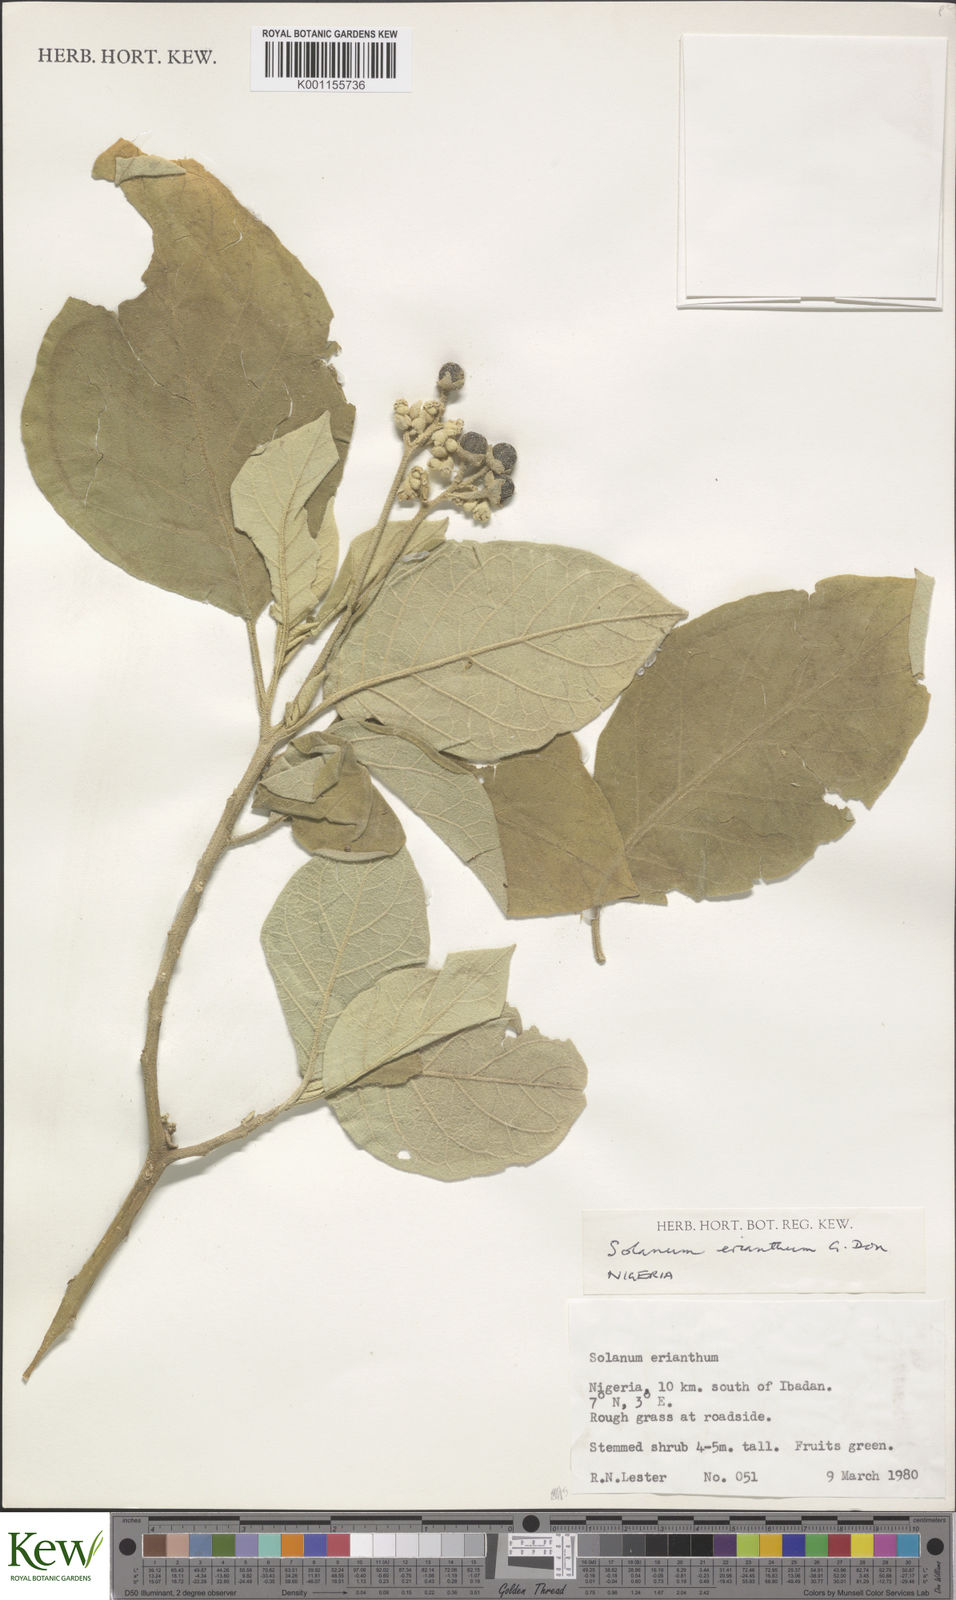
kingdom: Plantae
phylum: Tracheophyta
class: Magnoliopsida
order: Solanales
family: Solanaceae
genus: Solanum
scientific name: Solanum erianthum
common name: Tobacco-tree
